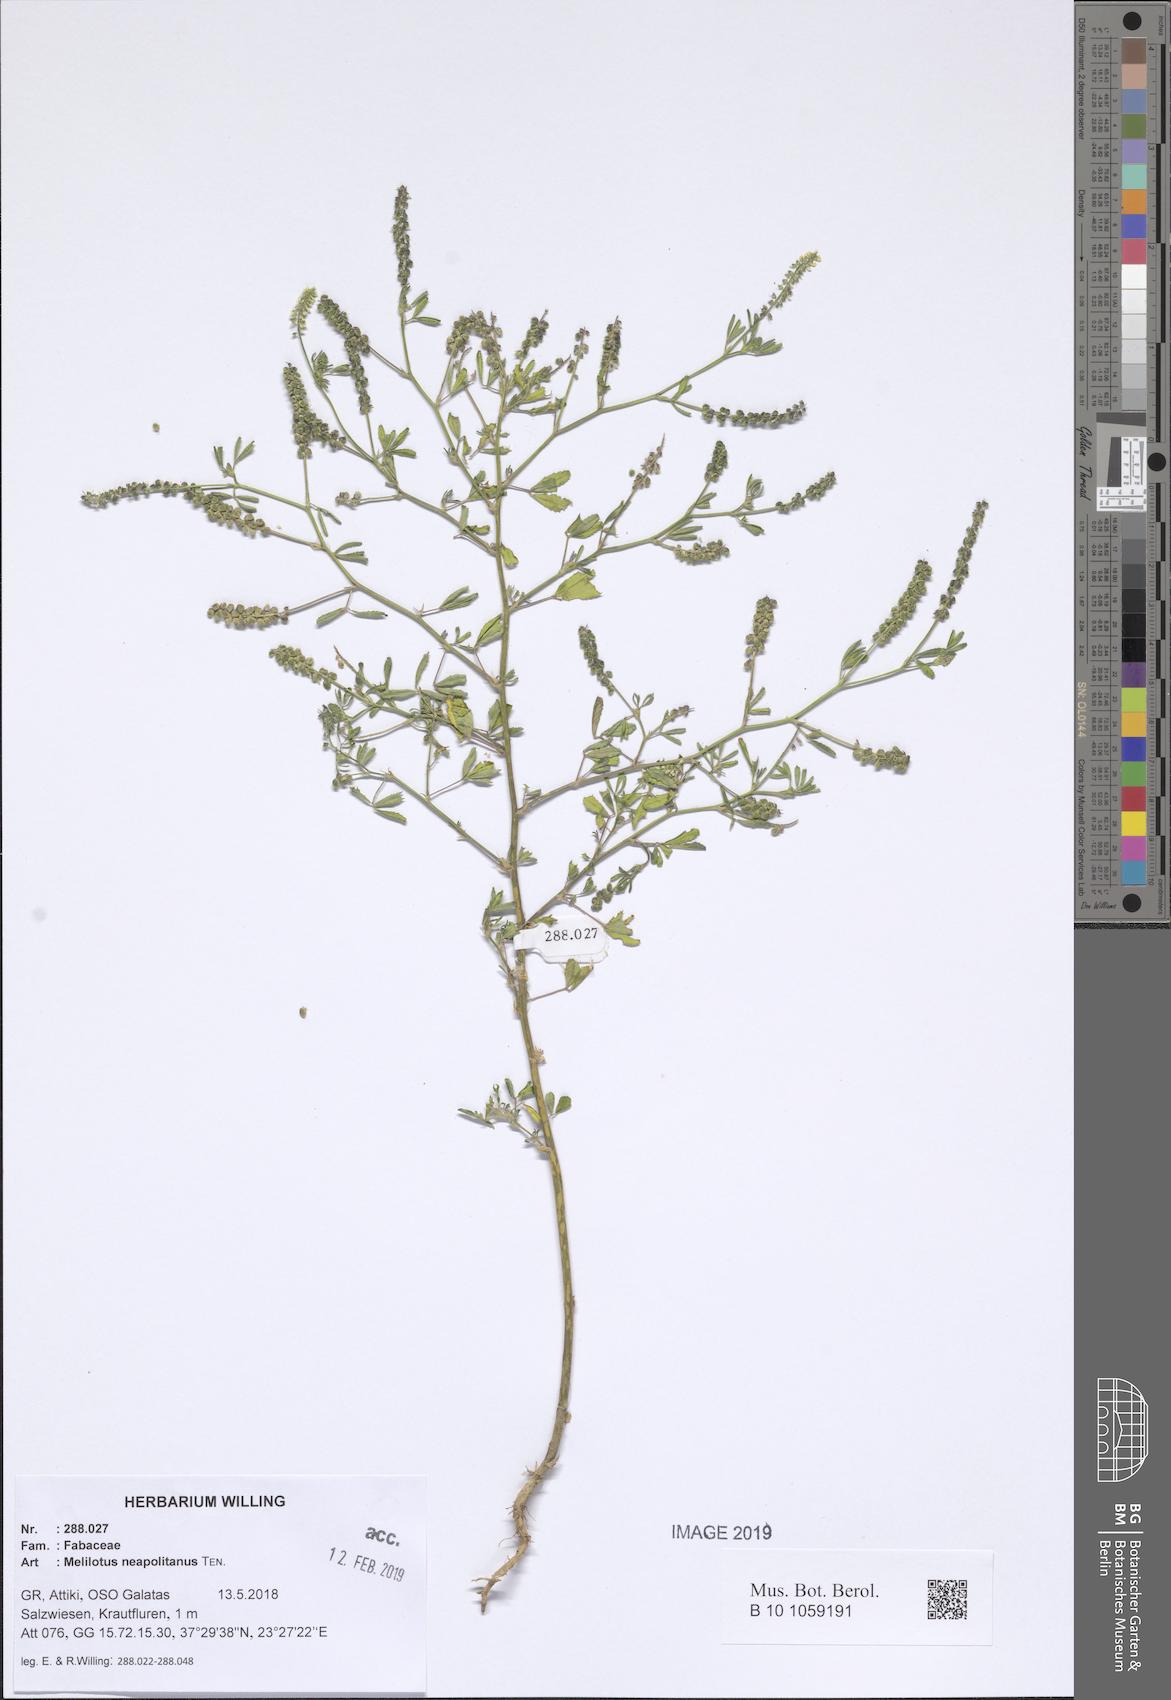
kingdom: Plantae
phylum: Tracheophyta
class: Magnoliopsida
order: Fabales
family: Fabaceae
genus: Melilotus
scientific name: Melilotus neapolitanus
